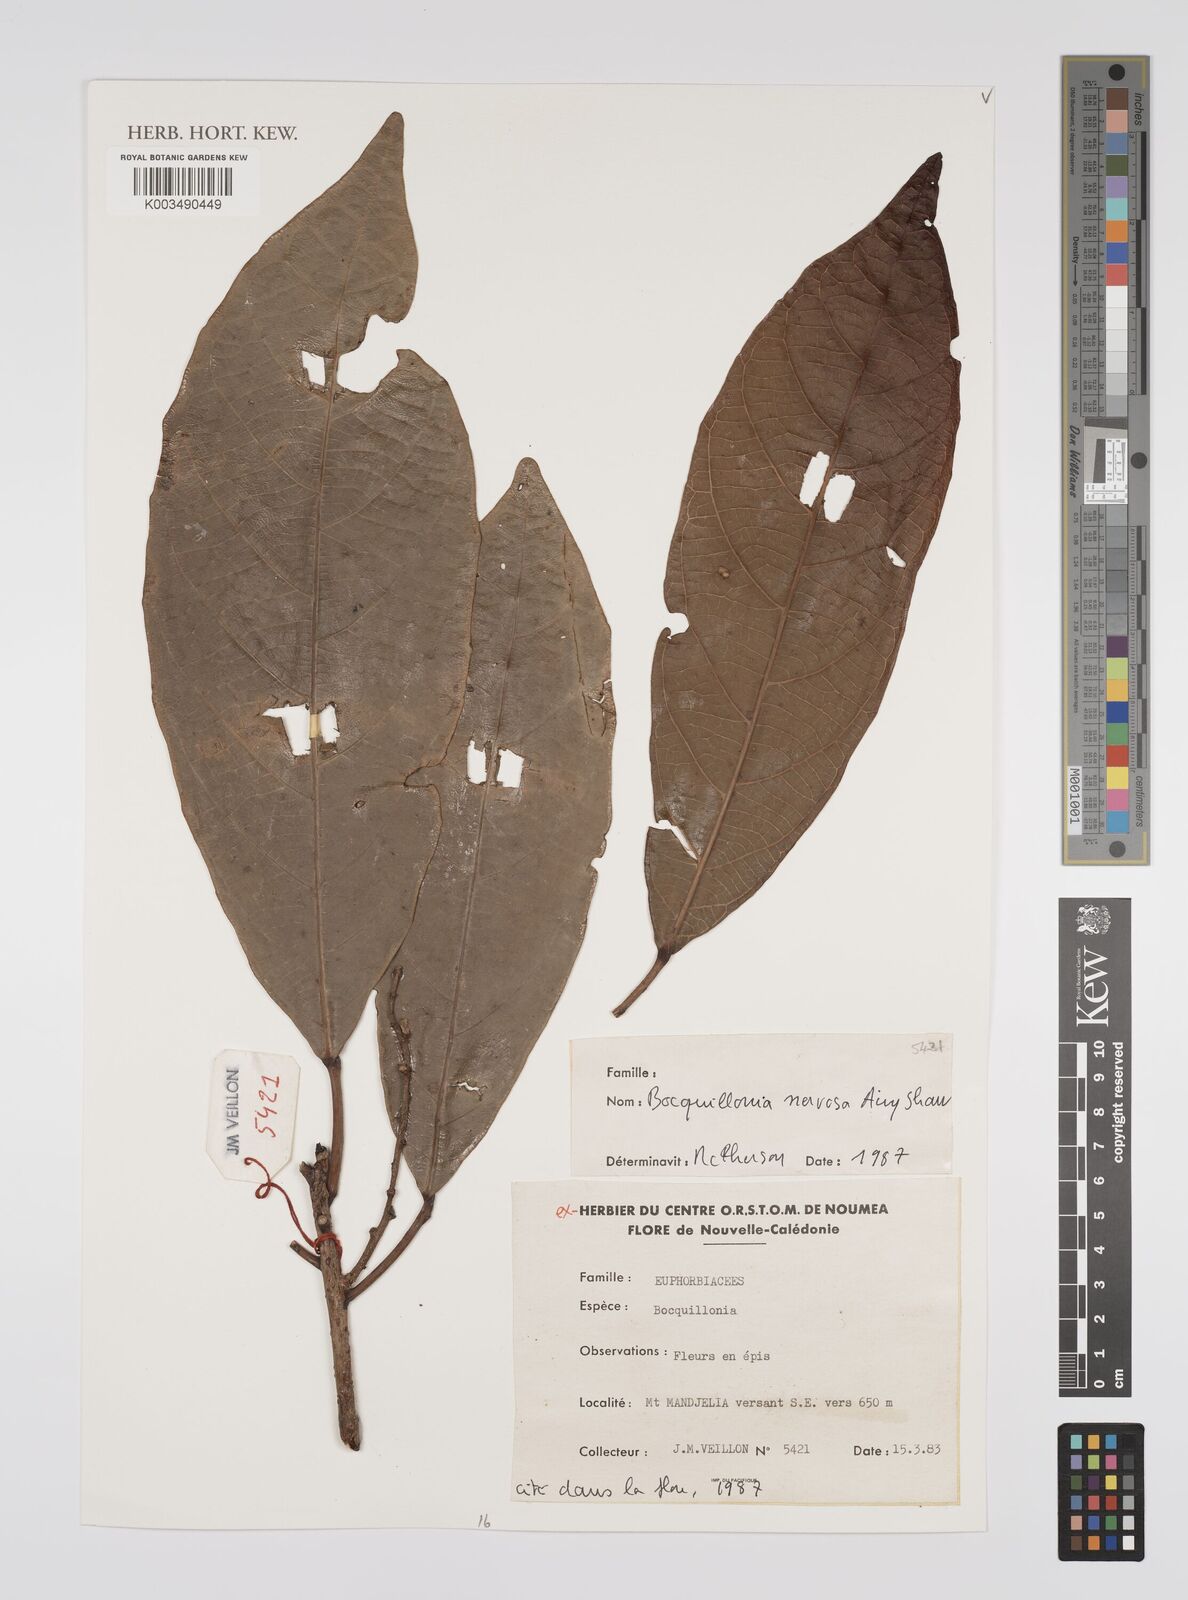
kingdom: Plantae
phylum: Tracheophyta
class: Magnoliopsida
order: Malpighiales
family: Euphorbiaceae
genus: Bocquillonia
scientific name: Bocquillonia nervosa
